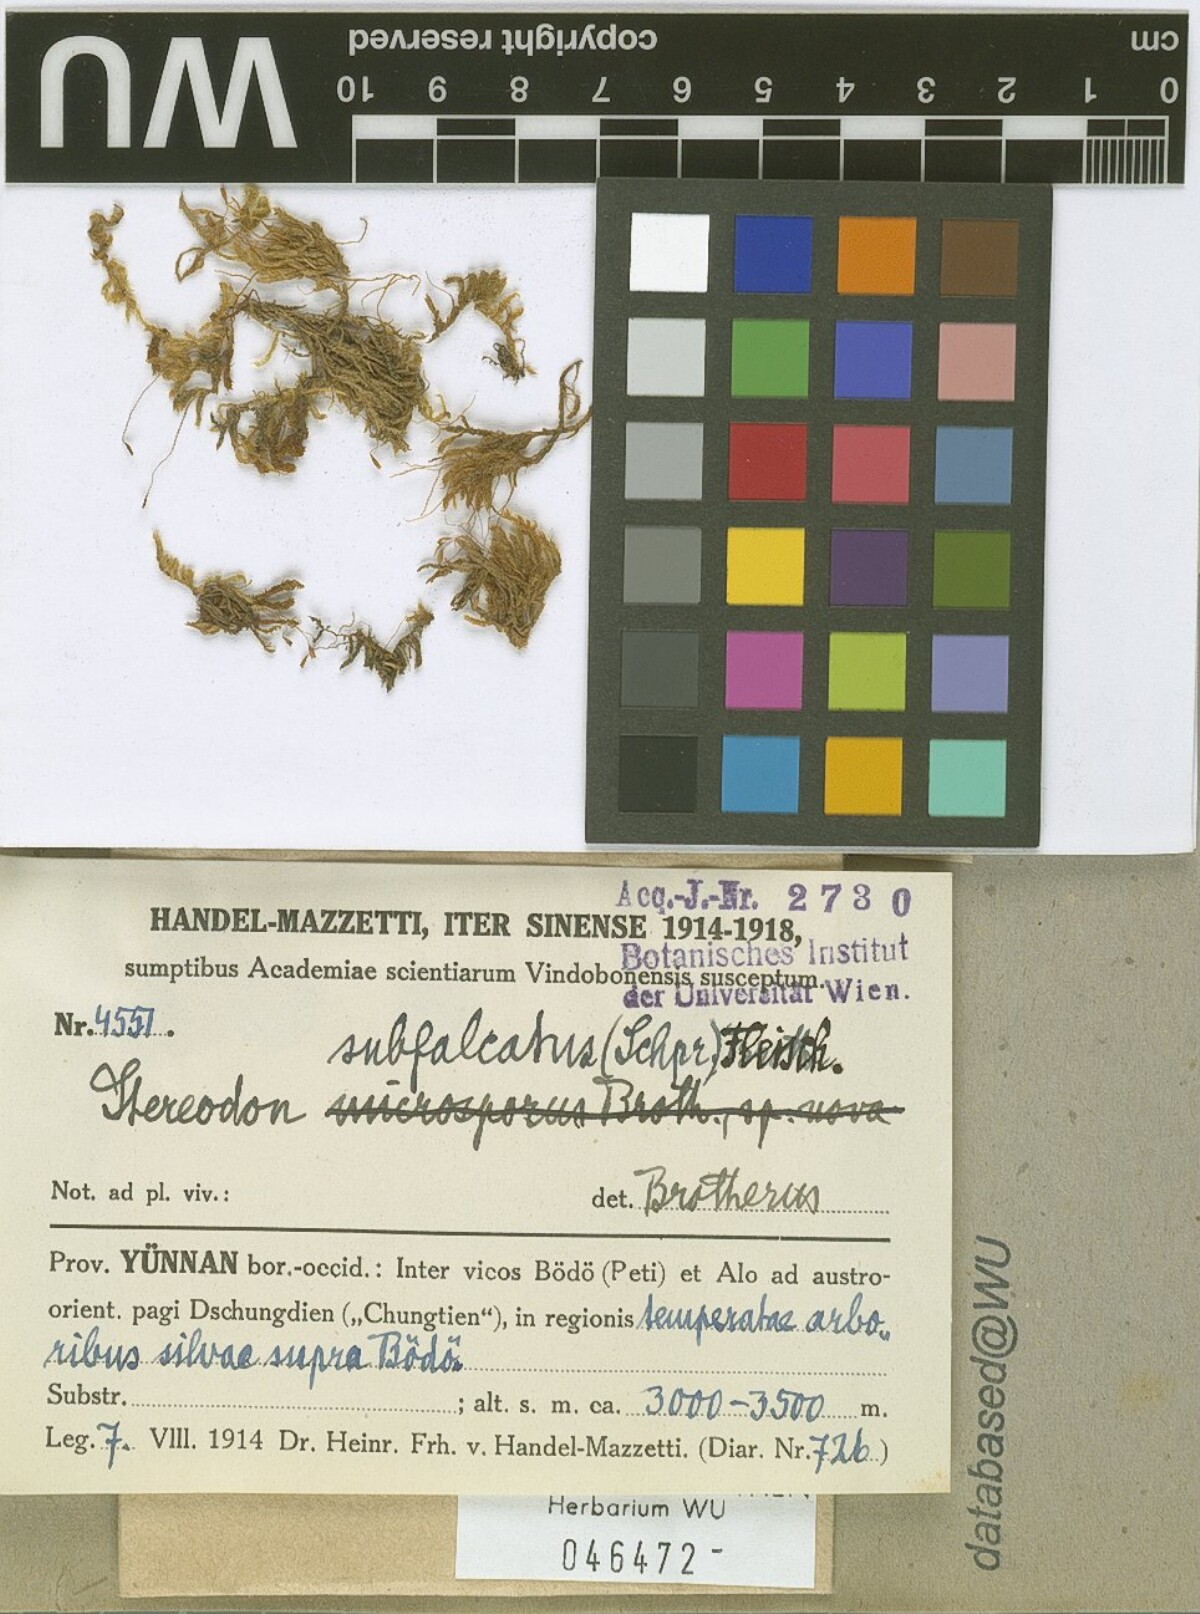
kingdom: Plantae
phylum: Bryophyta
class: Bryopsida
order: Hypnales
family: Pylaisiaceae
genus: Pylaisia
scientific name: Pylaisia falcata
